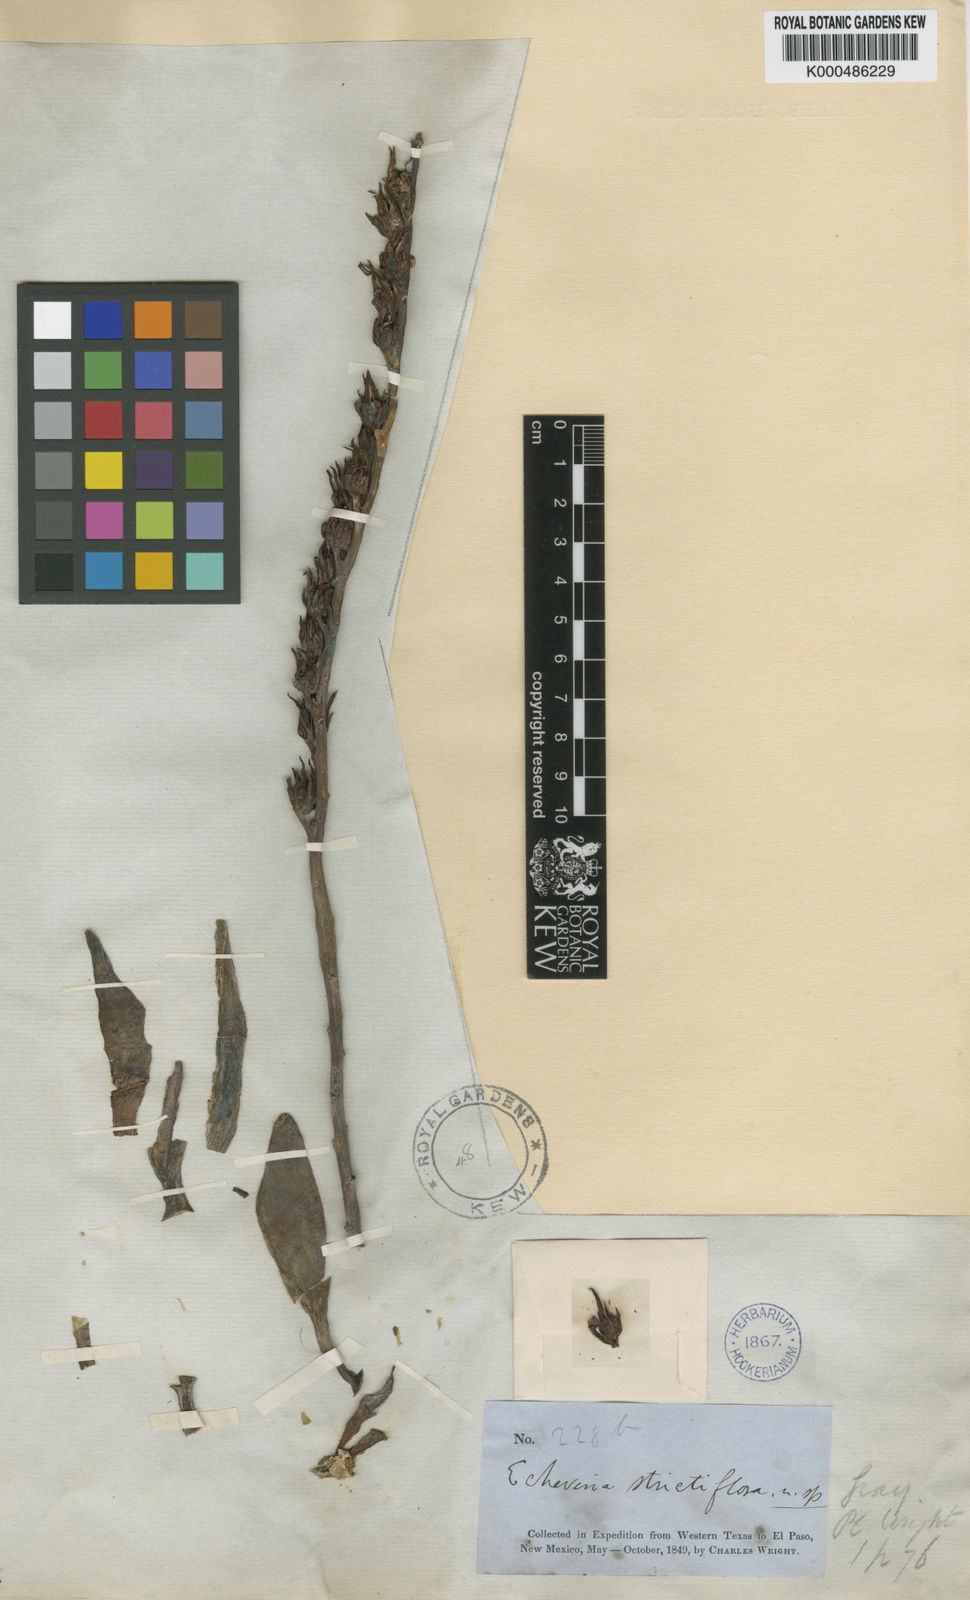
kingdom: Plantae
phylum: Tracheophyta
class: Magnoliopsida
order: Saxifragales
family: Crassulaceae
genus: Echeveria
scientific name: Echeveria strictiflora
